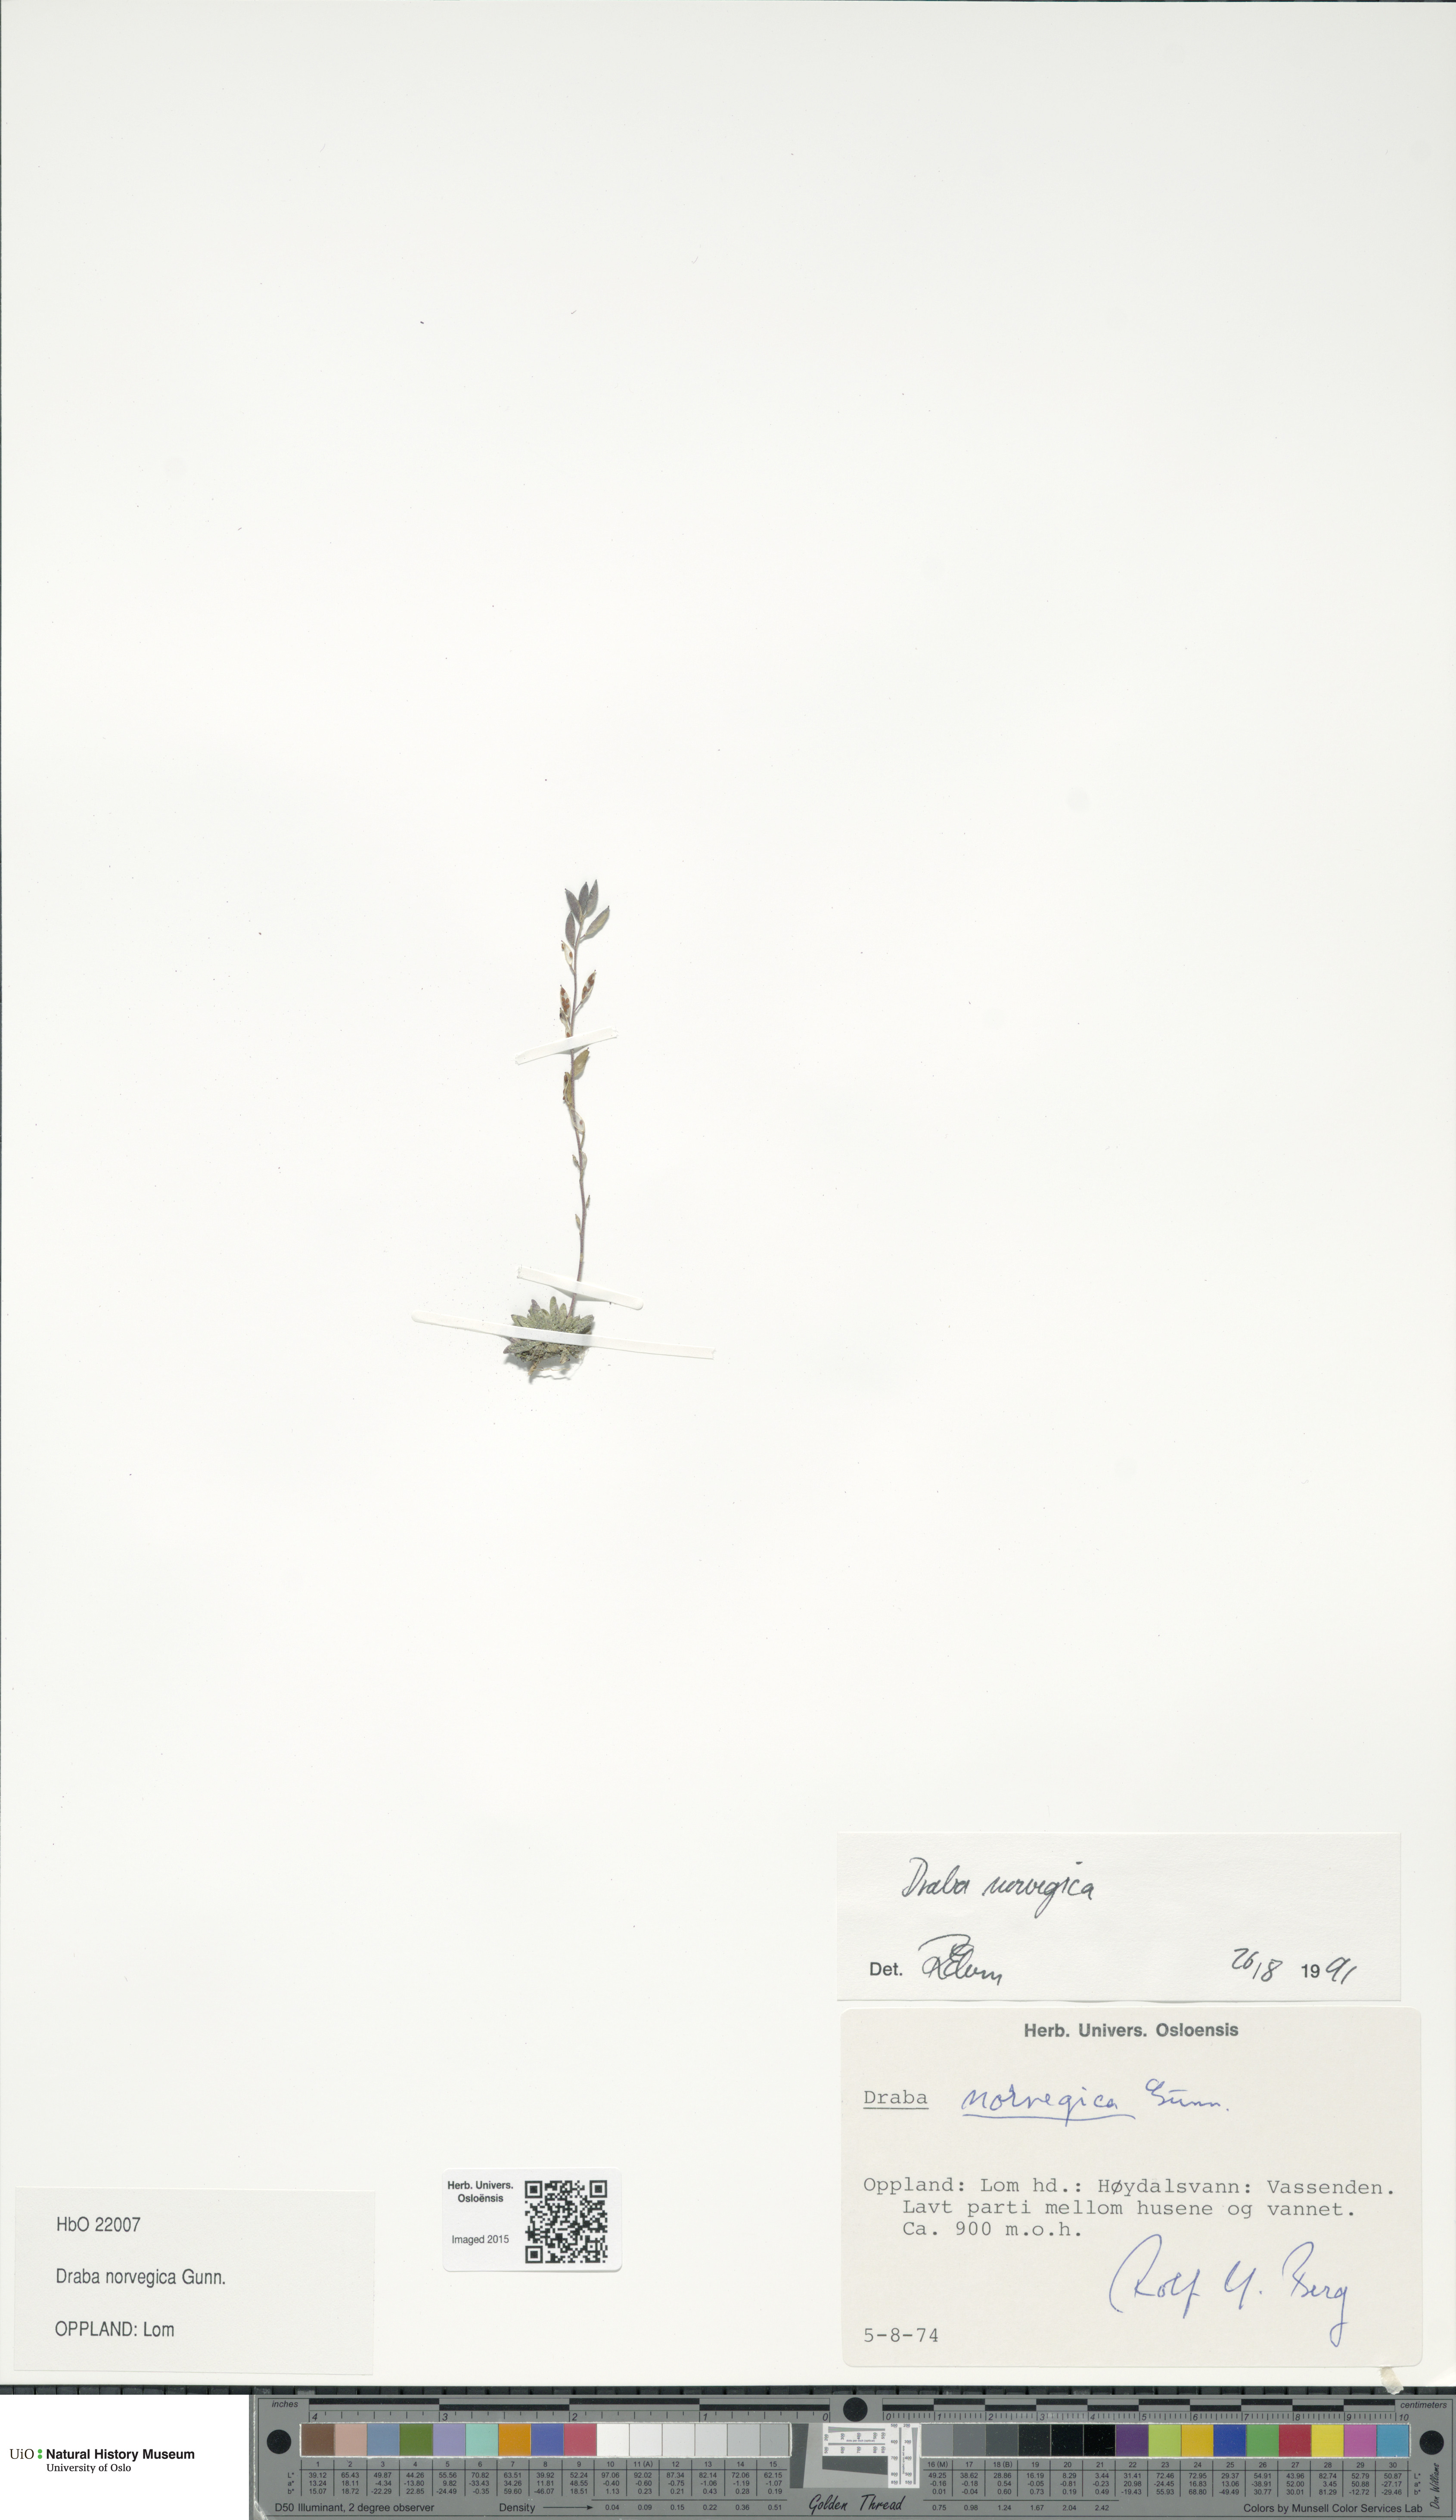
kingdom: Plantae
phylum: Tracheophyta
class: Magnoliopsida
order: Brassicales
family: Brassicaceae
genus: Draba
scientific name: Draba norvegica
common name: Rock whitlowgrass
